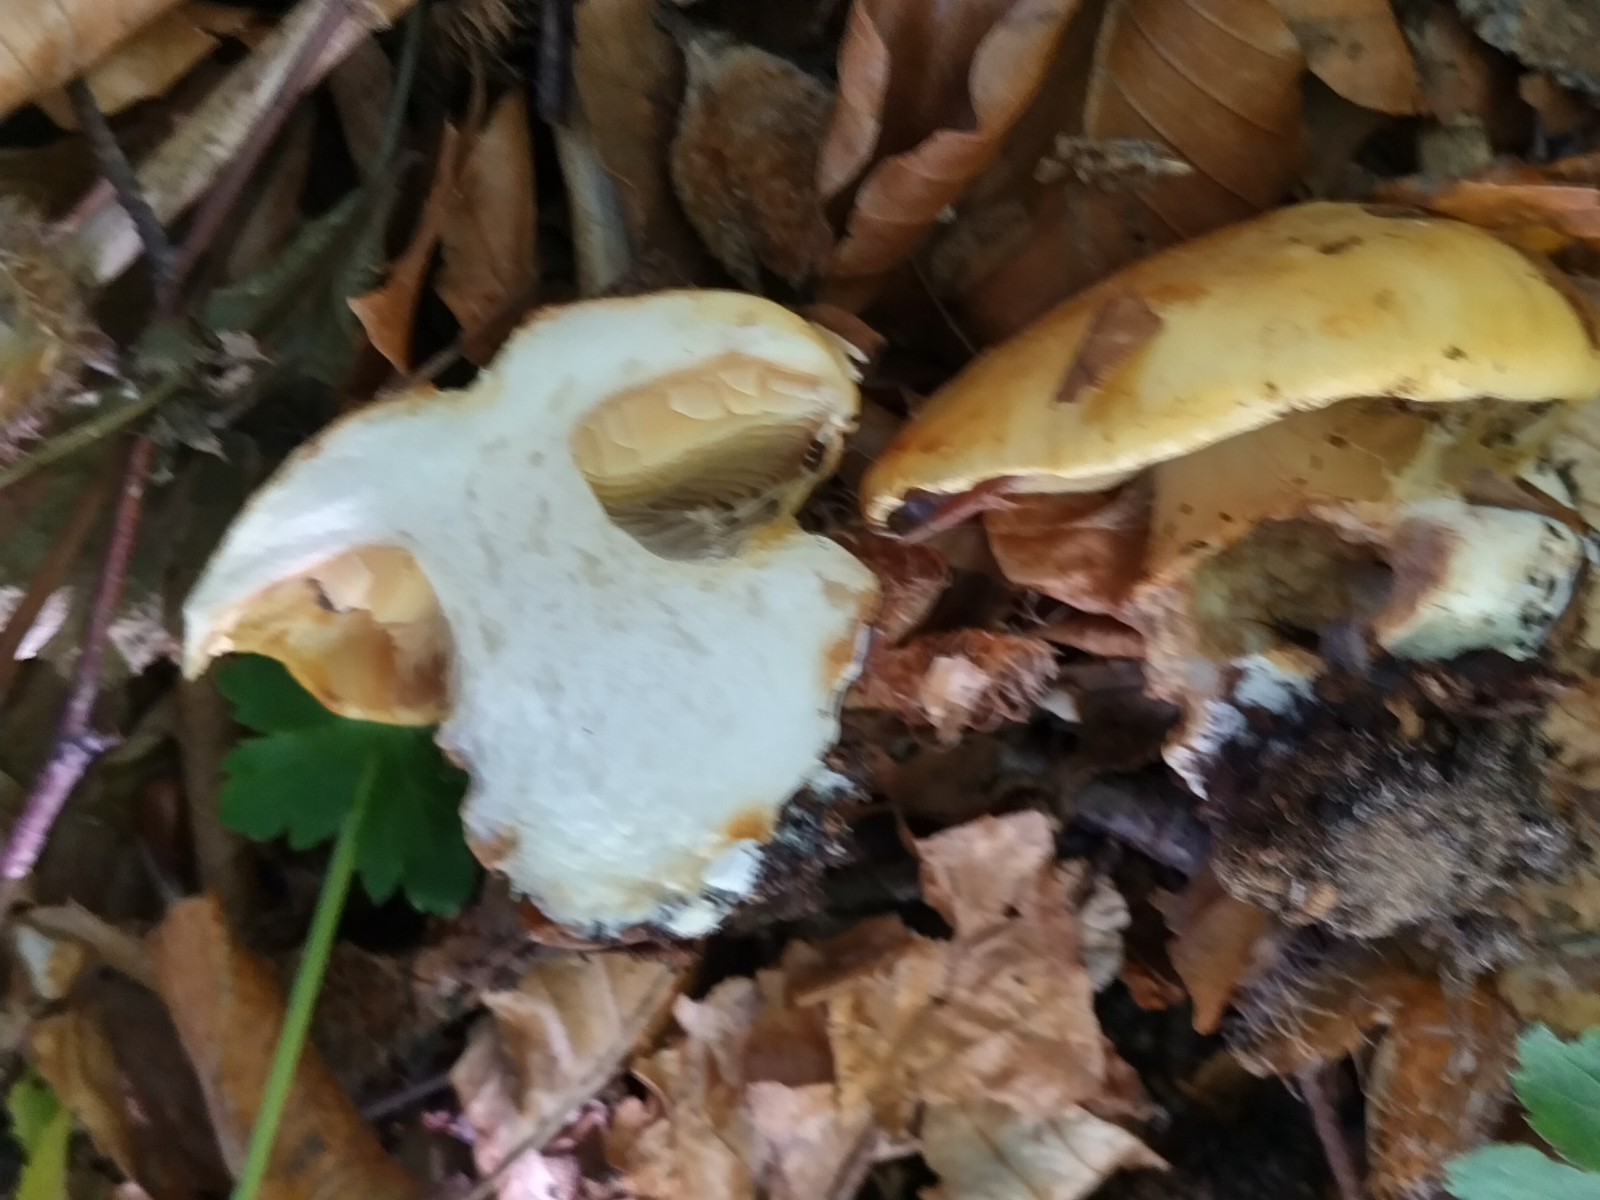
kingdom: Fungi
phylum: Basidiomycota
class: Agaricomycetes
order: Agaricales
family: Cortinariaceae
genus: Calonarius
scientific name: Calonarius elegantissimus
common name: orangegylden slørhat
